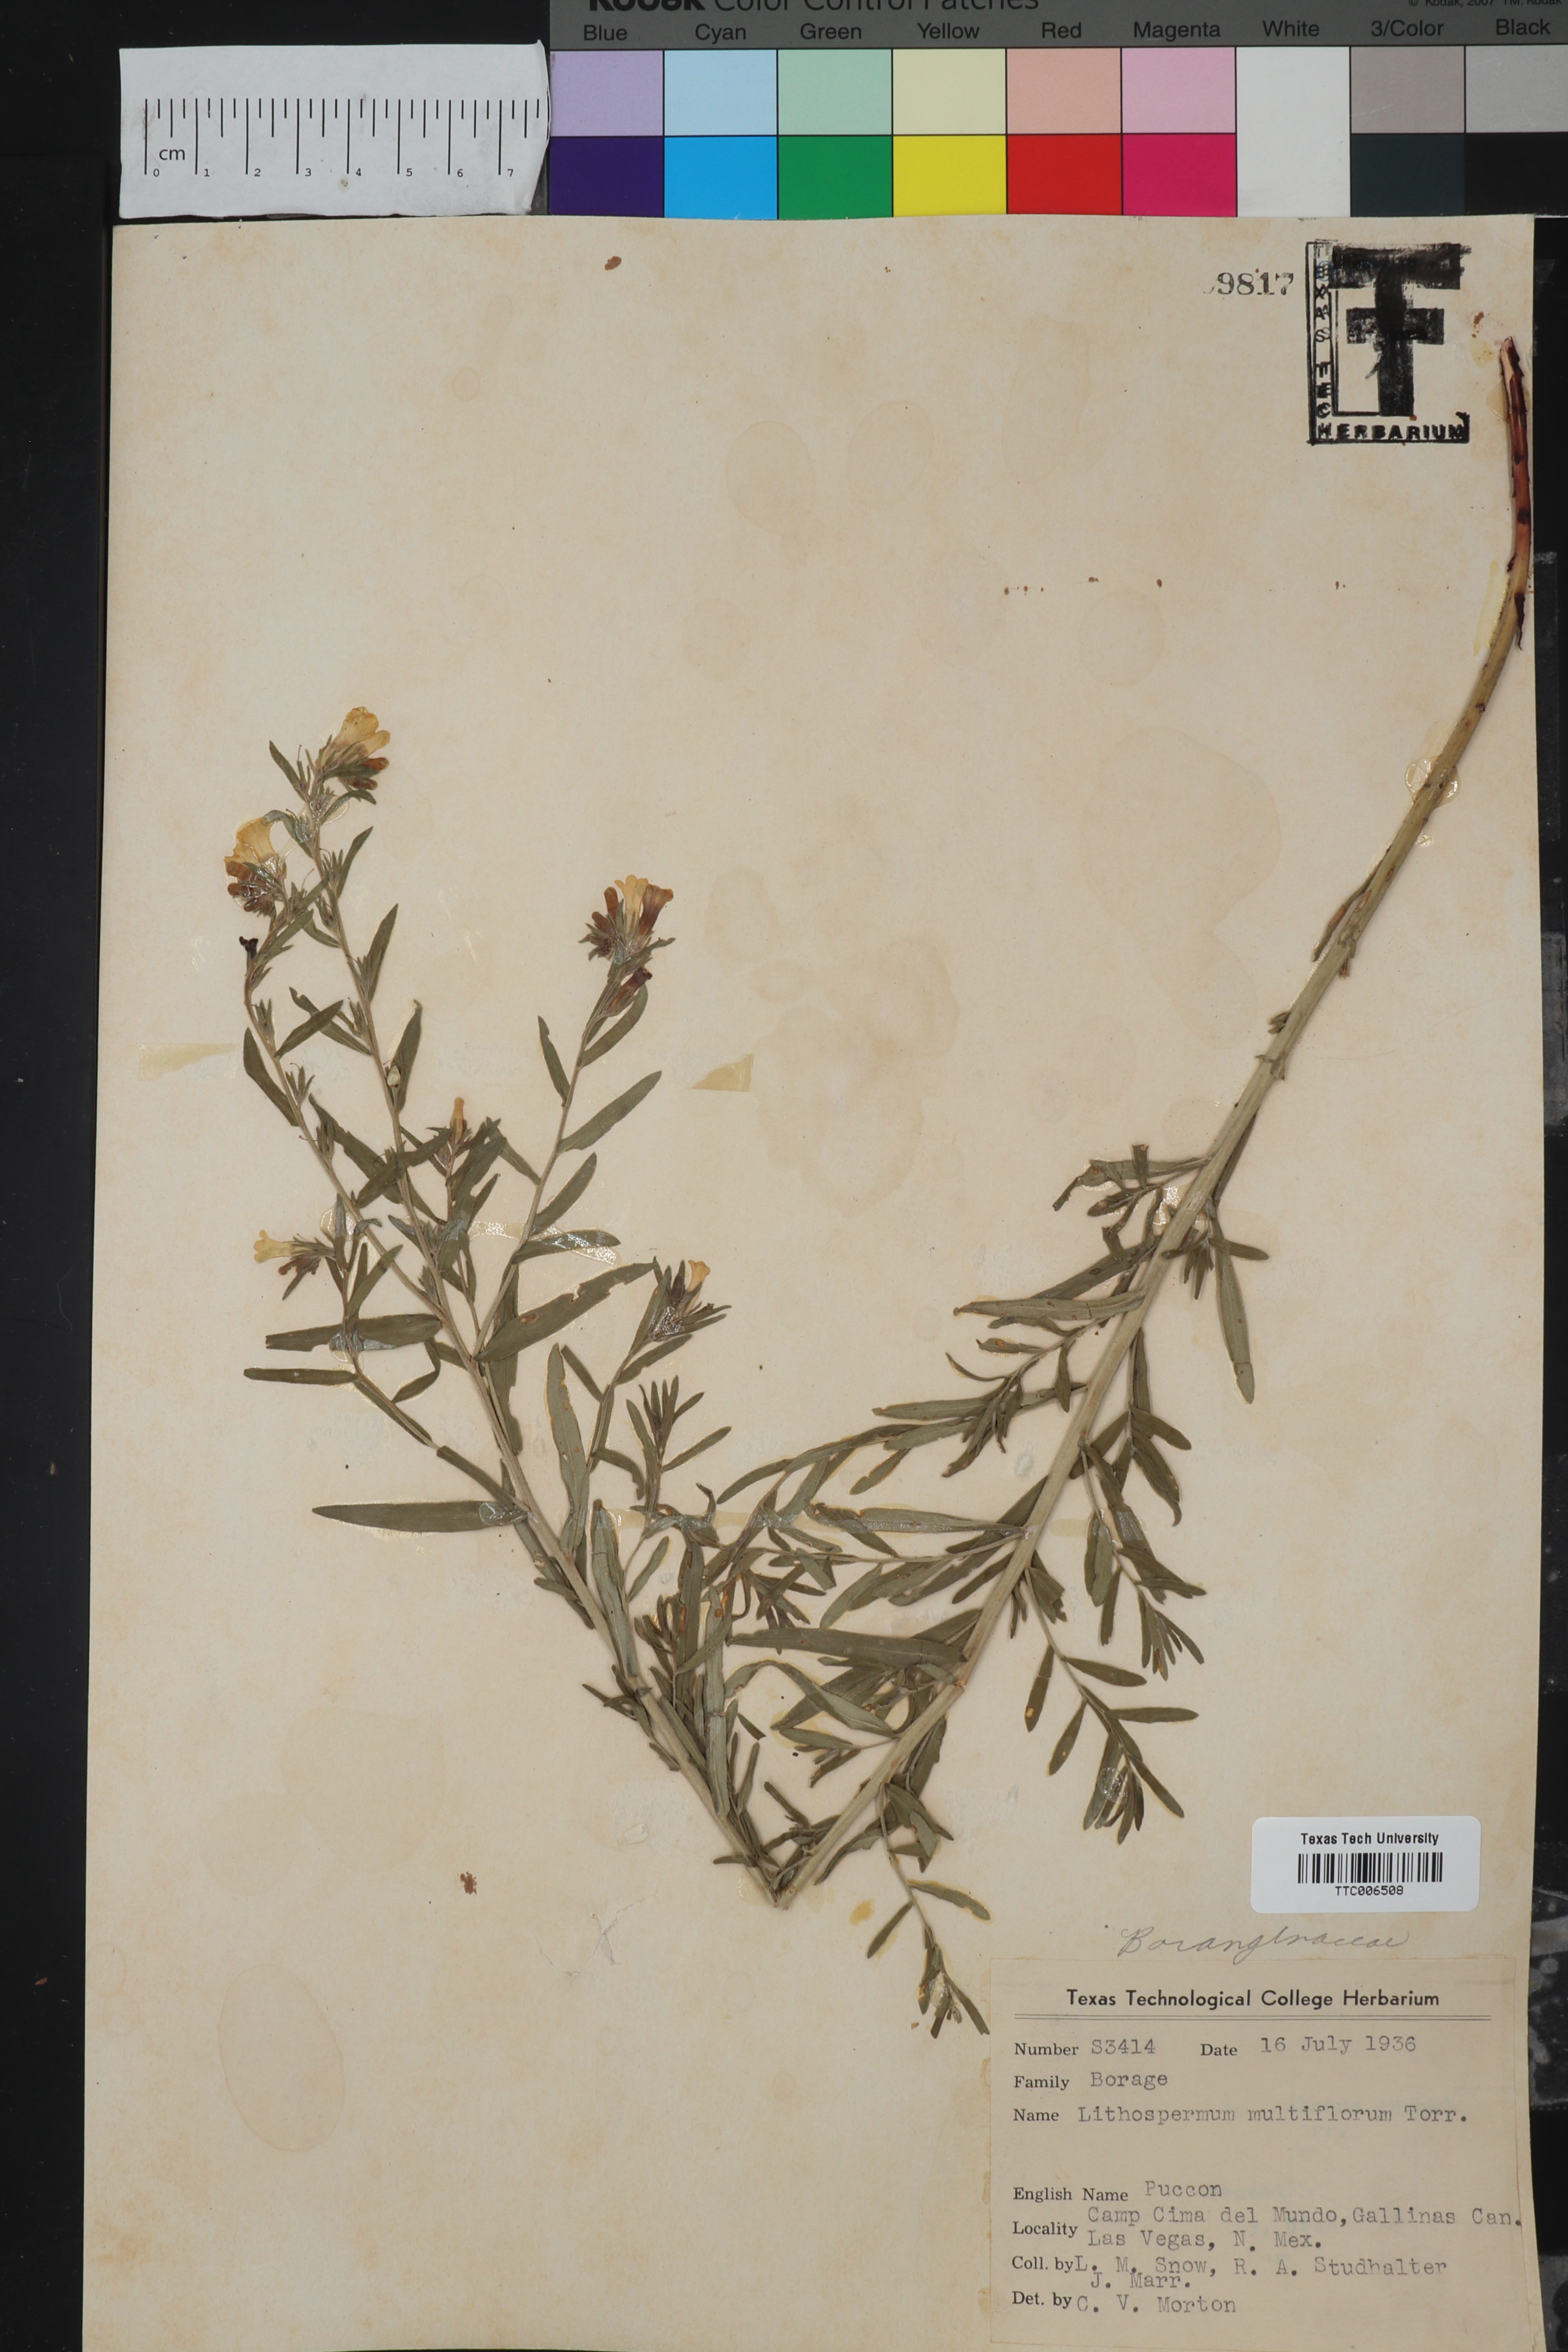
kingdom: Plantae
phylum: Tracheophyta
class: Magnoliopsida
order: Boraginales
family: Boraginaceae
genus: Lithospermum
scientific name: Lithospermum multiflorum
